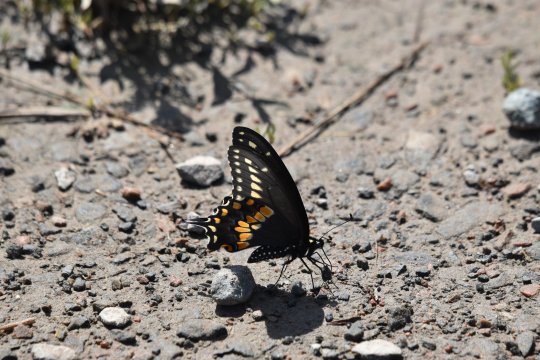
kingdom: Animalia
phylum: Arthropoda
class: Insecta
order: Lepidoptera
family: Papilionidae
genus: Papilio
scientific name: Papilio polyxenes
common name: Black Swallowtail
